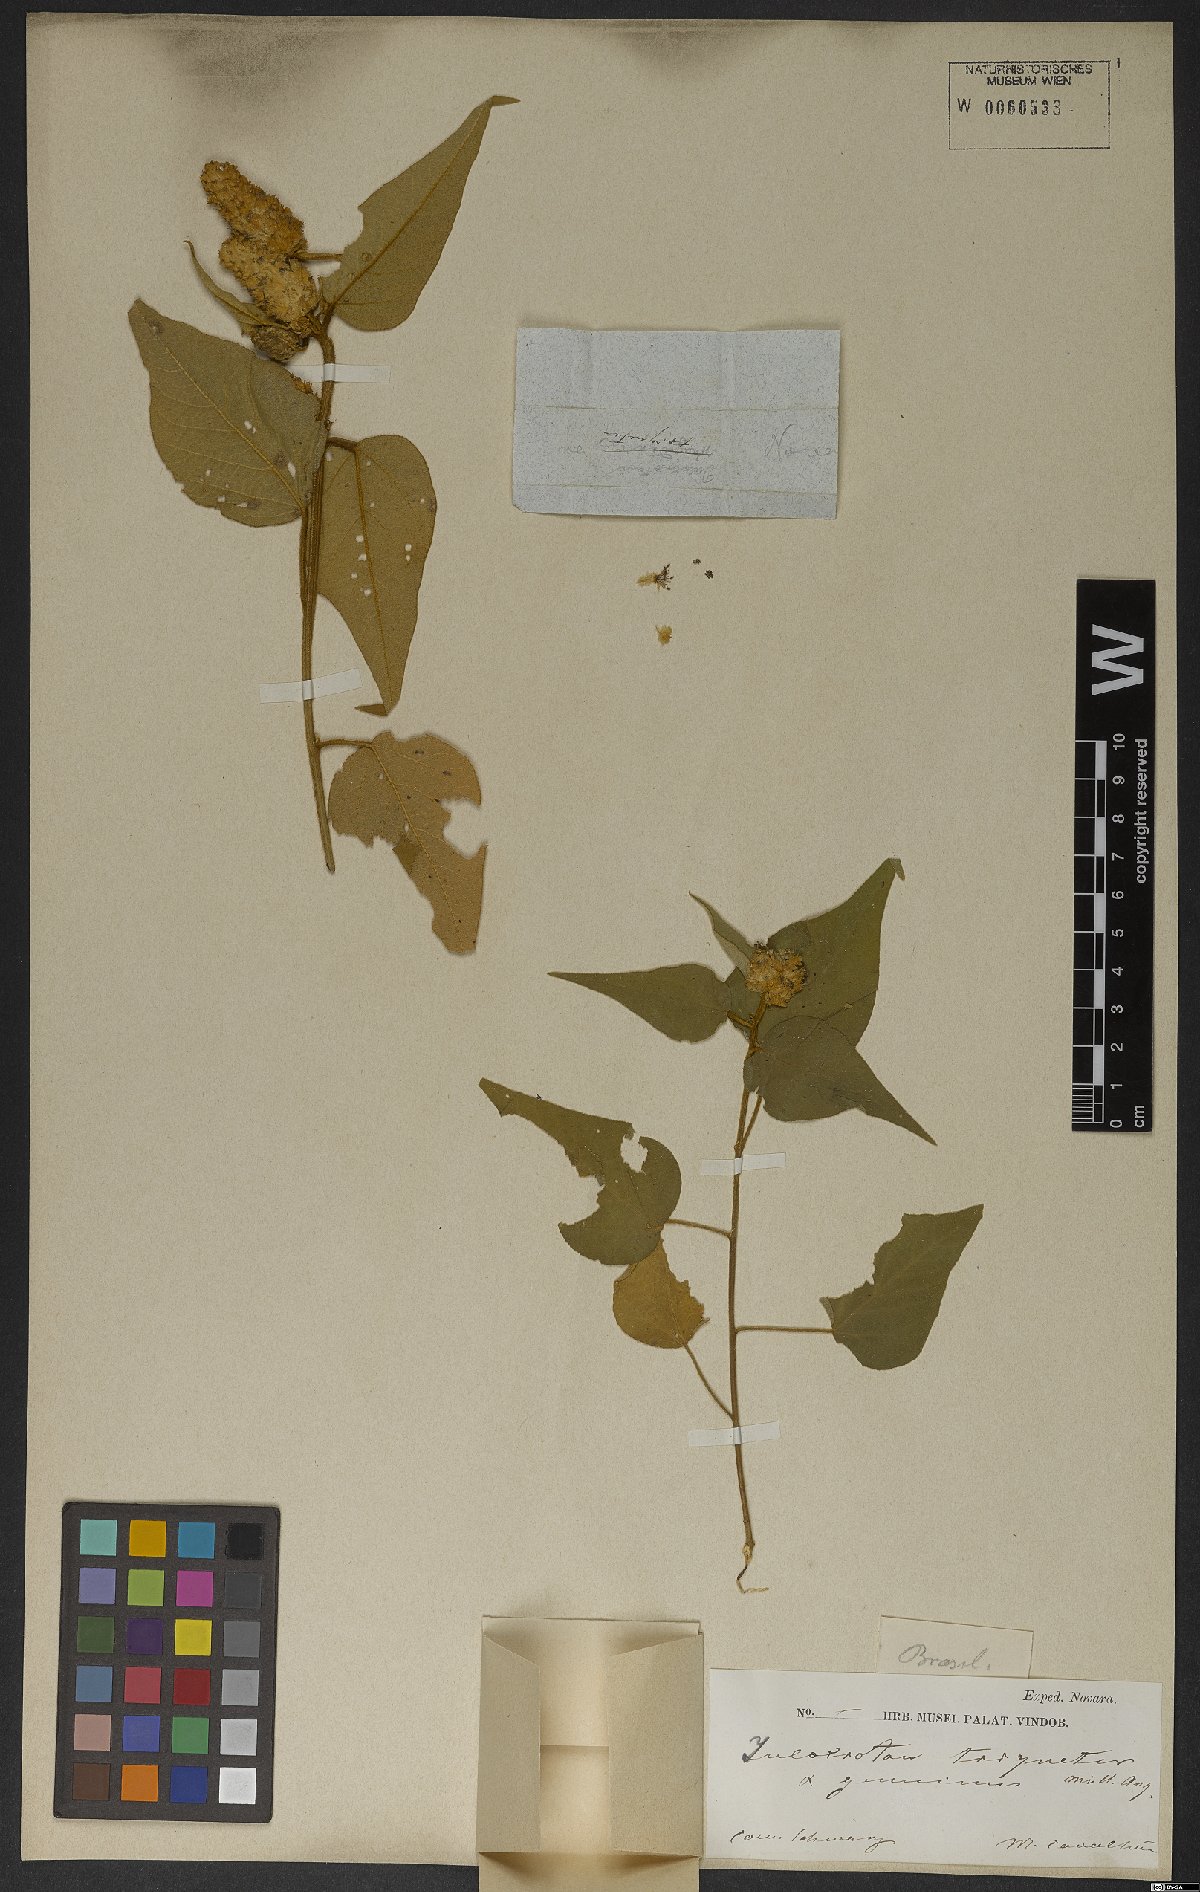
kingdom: Plantae
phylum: Tracheophyta
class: Magnoliopsida
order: Malpighiales
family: Euphorbiaceae
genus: Croton
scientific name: Croton triqueter
